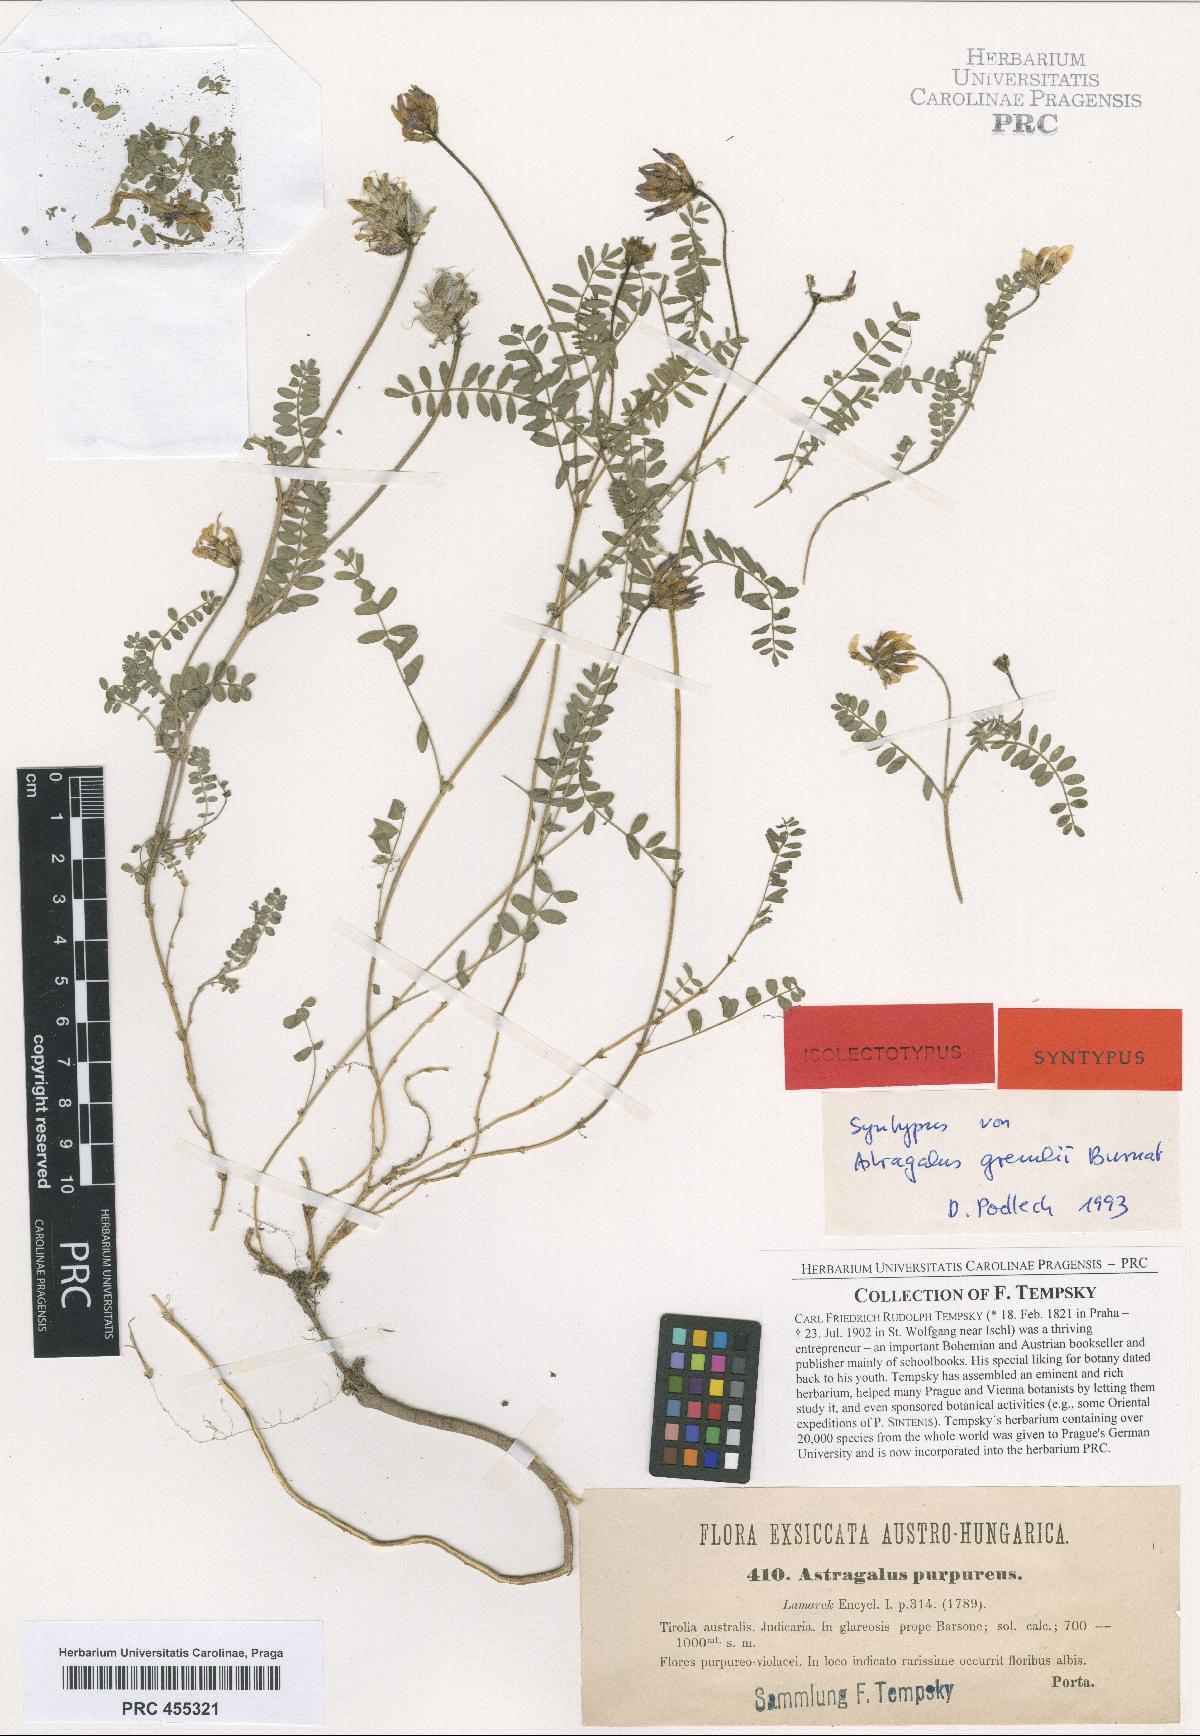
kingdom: Plantae
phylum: Tracheophyta
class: Magnoliopsida
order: Fabales
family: Fabaceae
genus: Astragalus
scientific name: Astragalus hypoglottis
